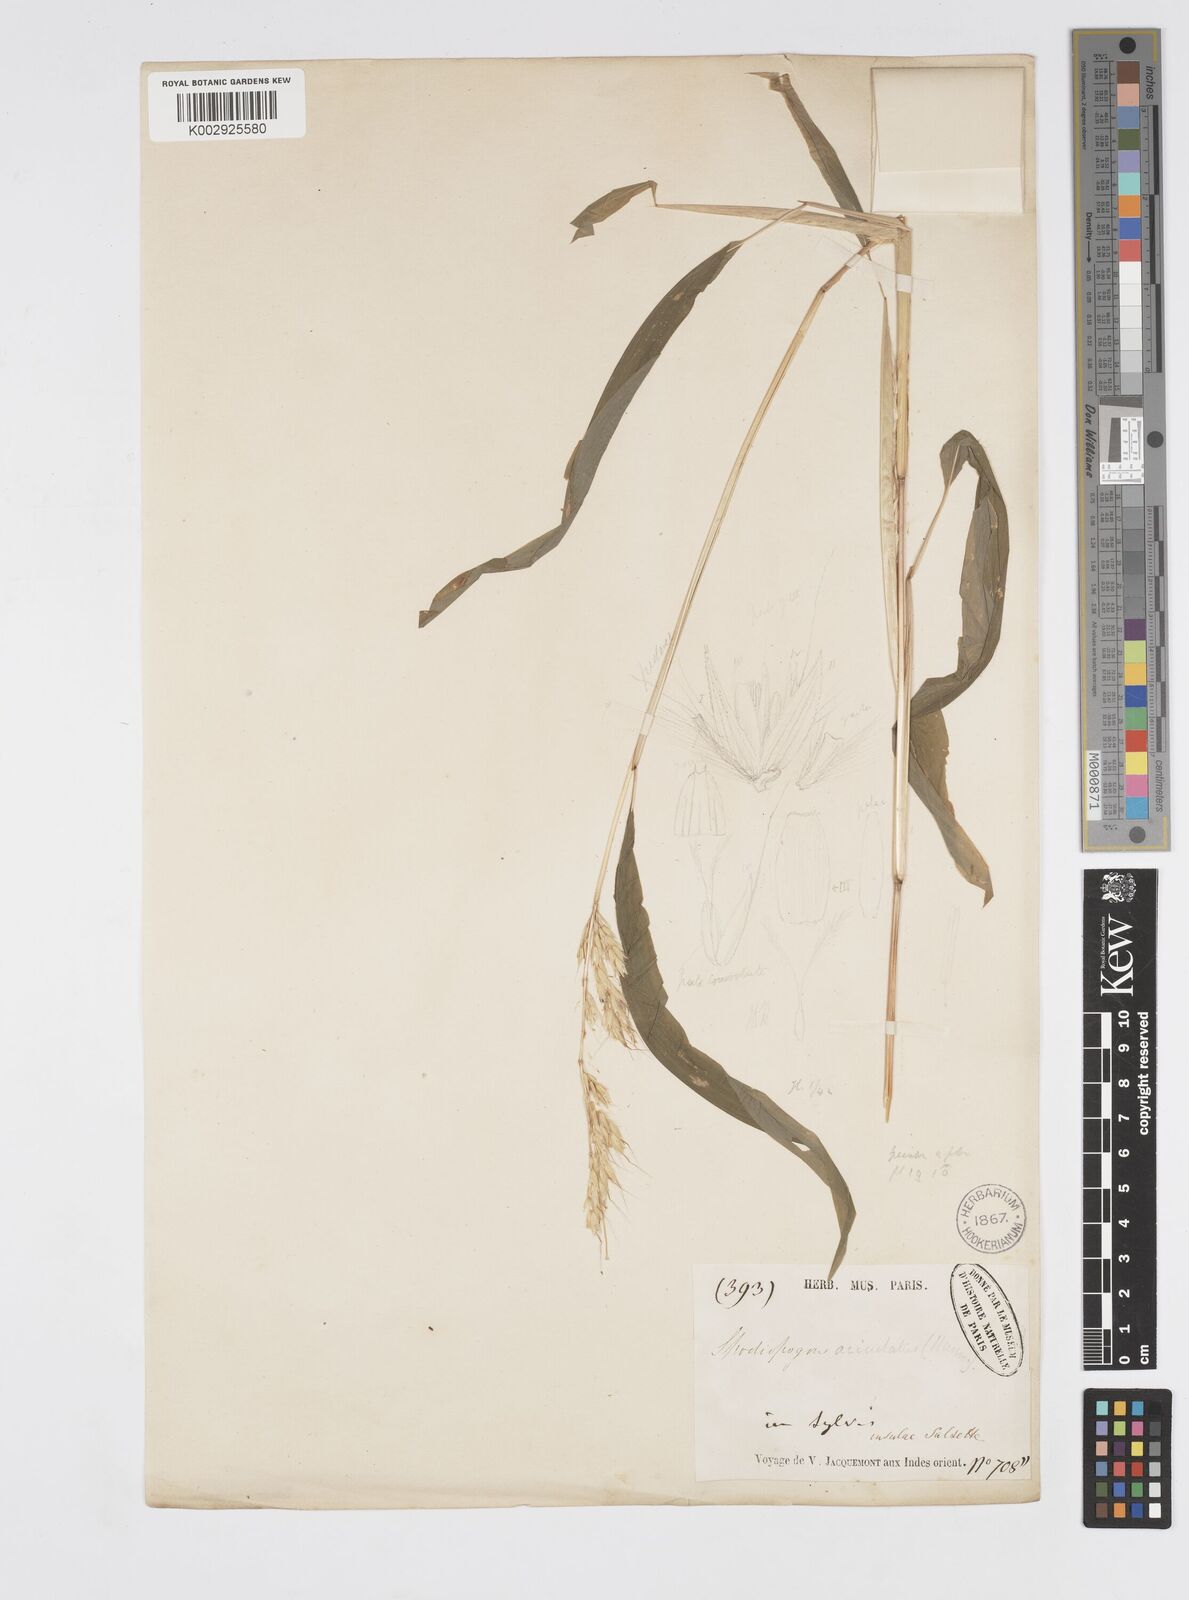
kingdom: Plantae
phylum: Tracheophyta
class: Liliopsida
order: Poales
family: Poaceae
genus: Spodiopogon
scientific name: Spodiopogon rhizophorus
